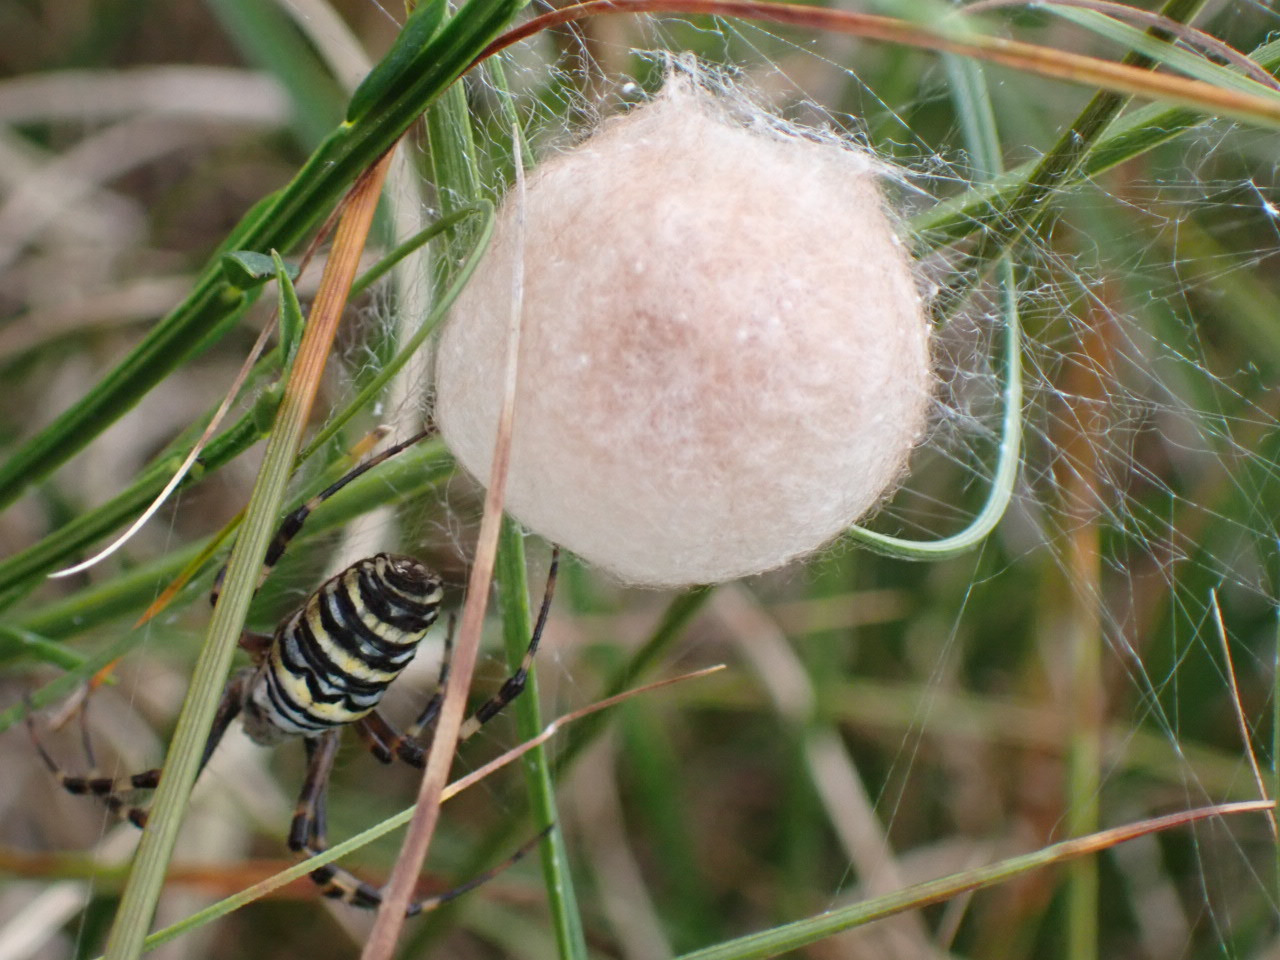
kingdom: Animalia
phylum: Arthropoda
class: Arachnida
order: Araneae
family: Araneidae
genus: Argiope
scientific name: Argiope bruennichi
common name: Hvepseedderkop
